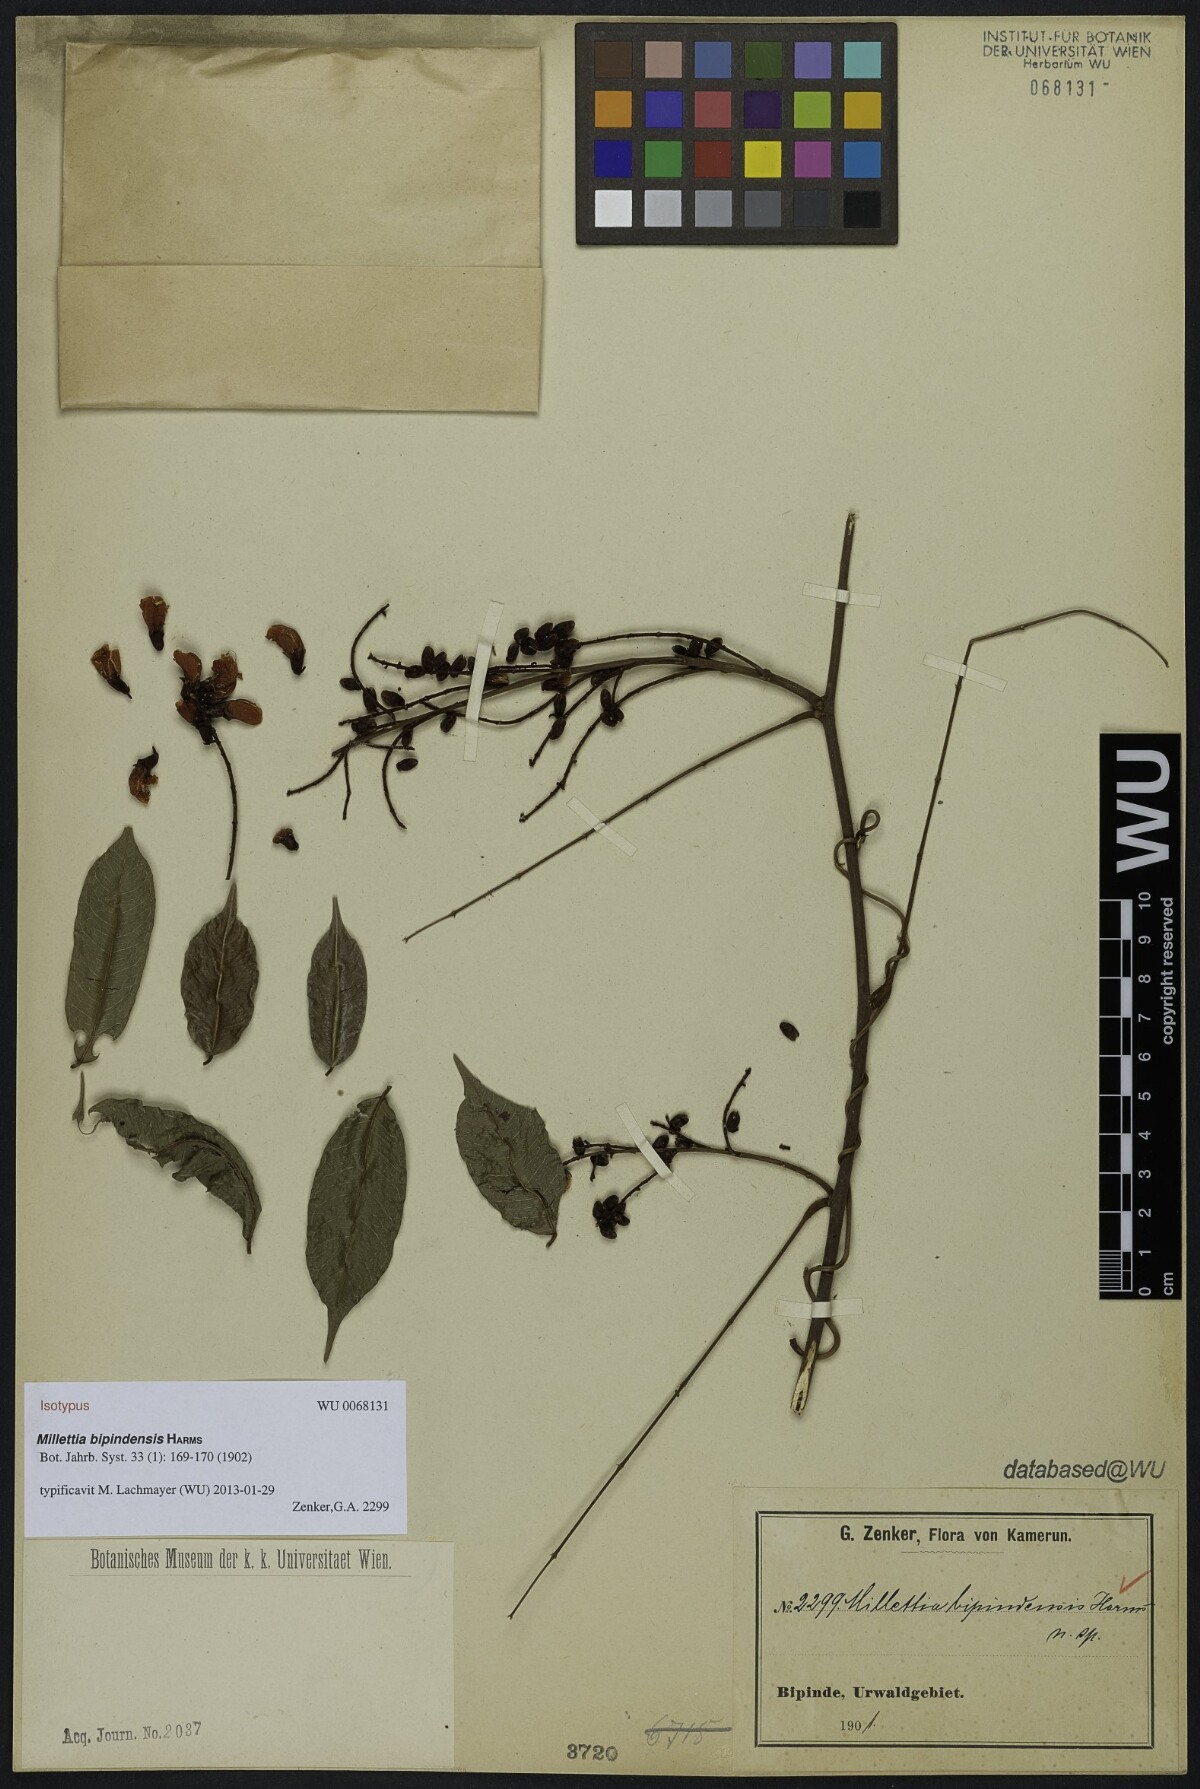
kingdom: Plantae
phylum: Tracheophyta
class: Magnoliopsida
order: Fabales
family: Fabaceae
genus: Millettia
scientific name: Millettia bipindensis
